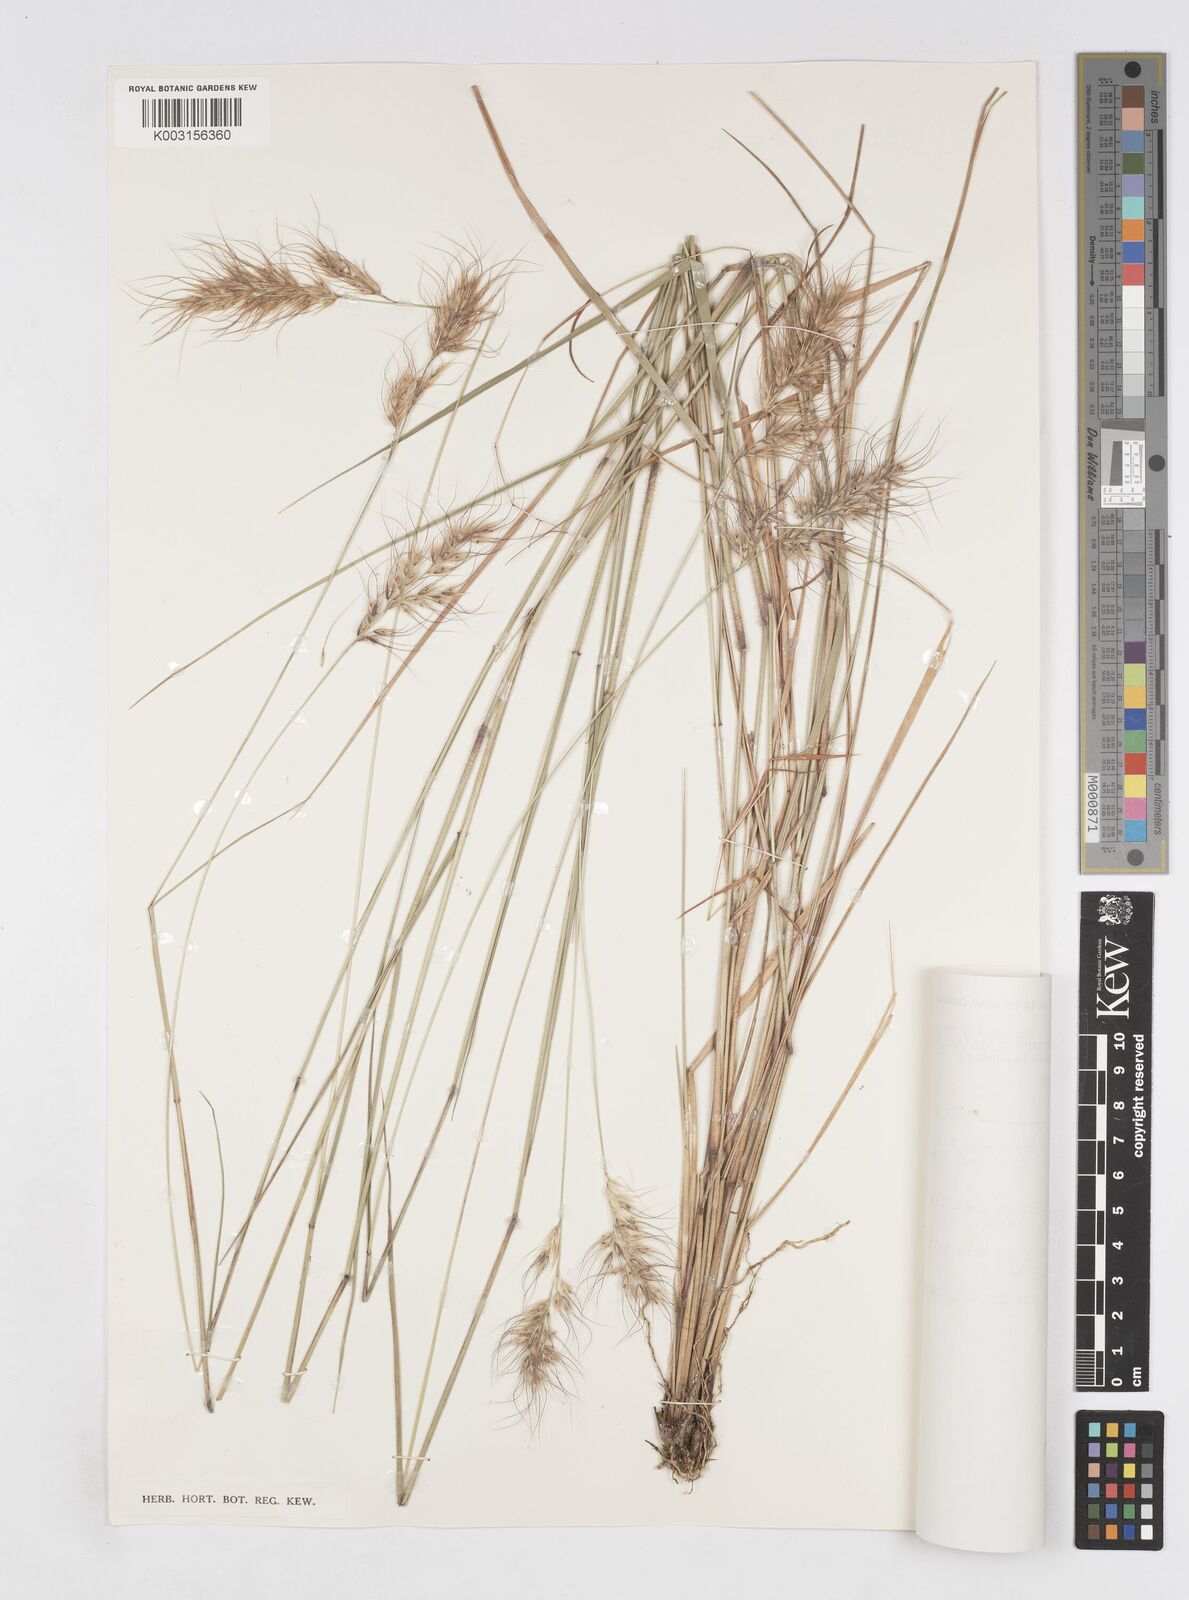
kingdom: Plantae
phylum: Tracheophyta
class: Liliopsida
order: Poales
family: Poaceae
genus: Eriachne
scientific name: Eriachne squarrosa
